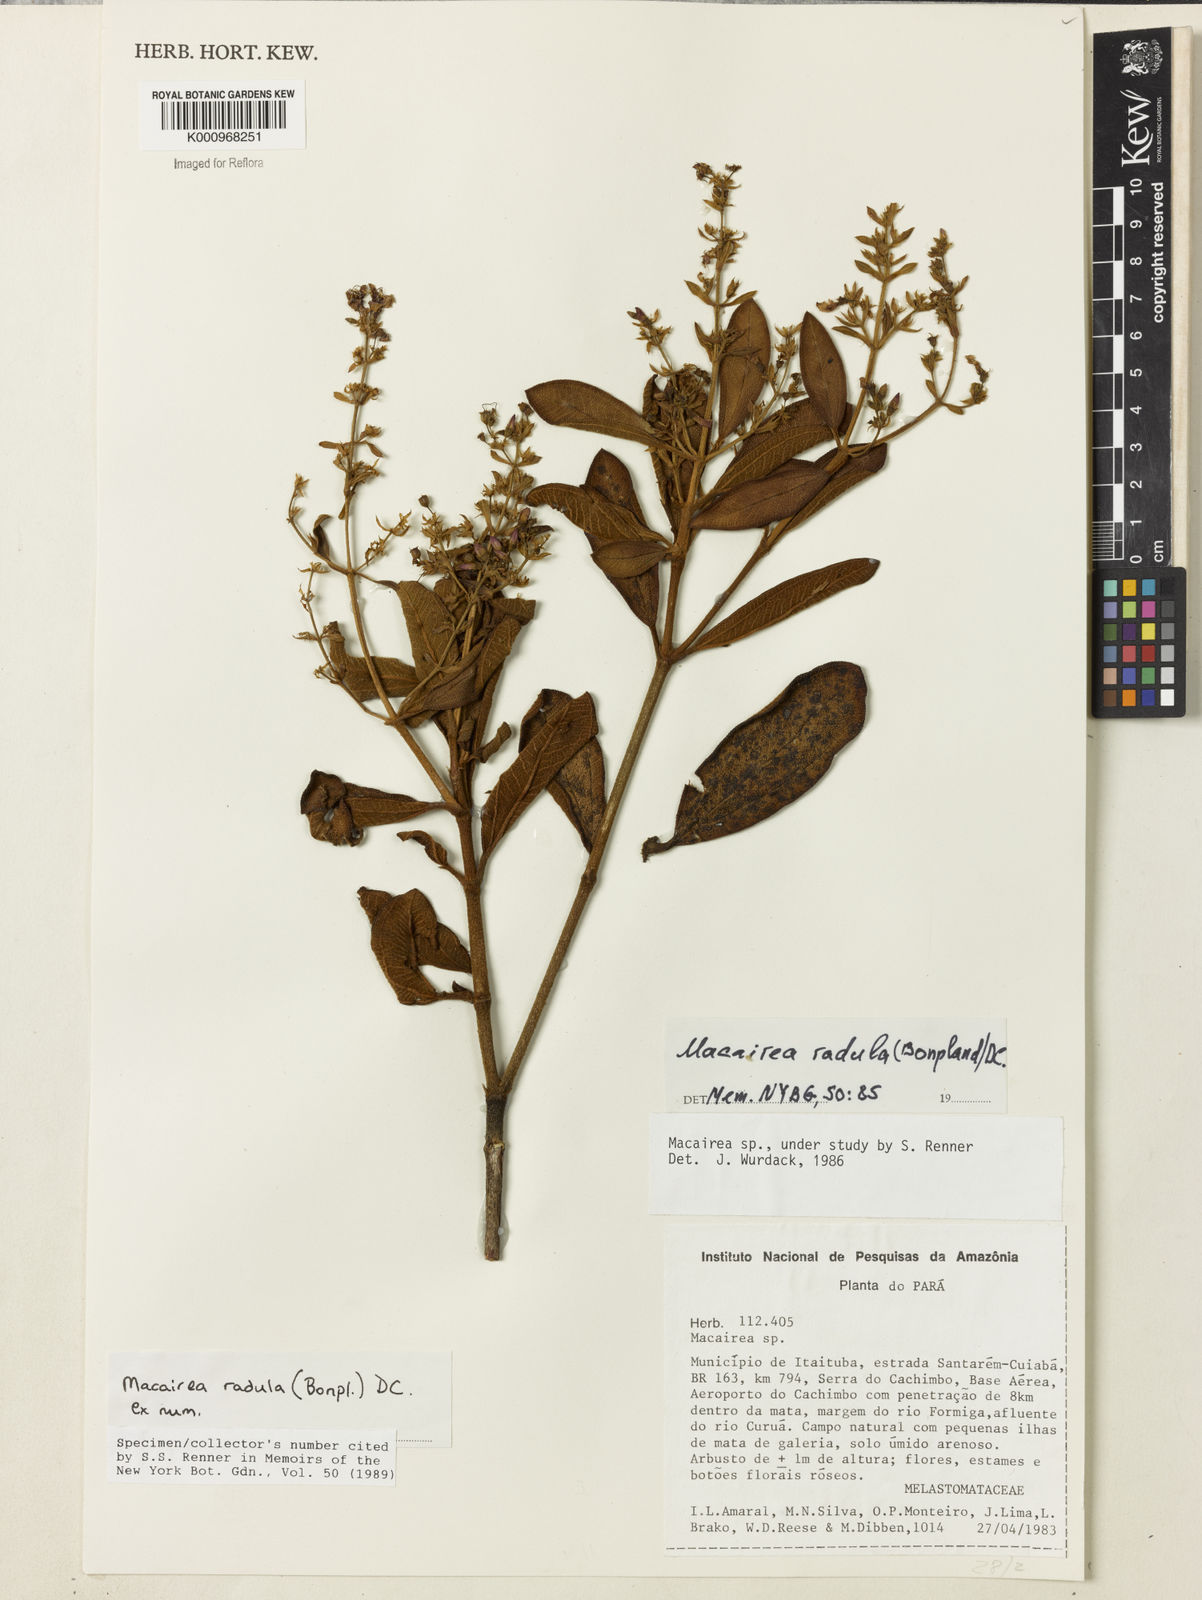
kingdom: Plantae
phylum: Tracheophyta
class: Magnoliopsida
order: Myrtales
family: Melastomataceae
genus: Macairea
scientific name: Macairea radula
